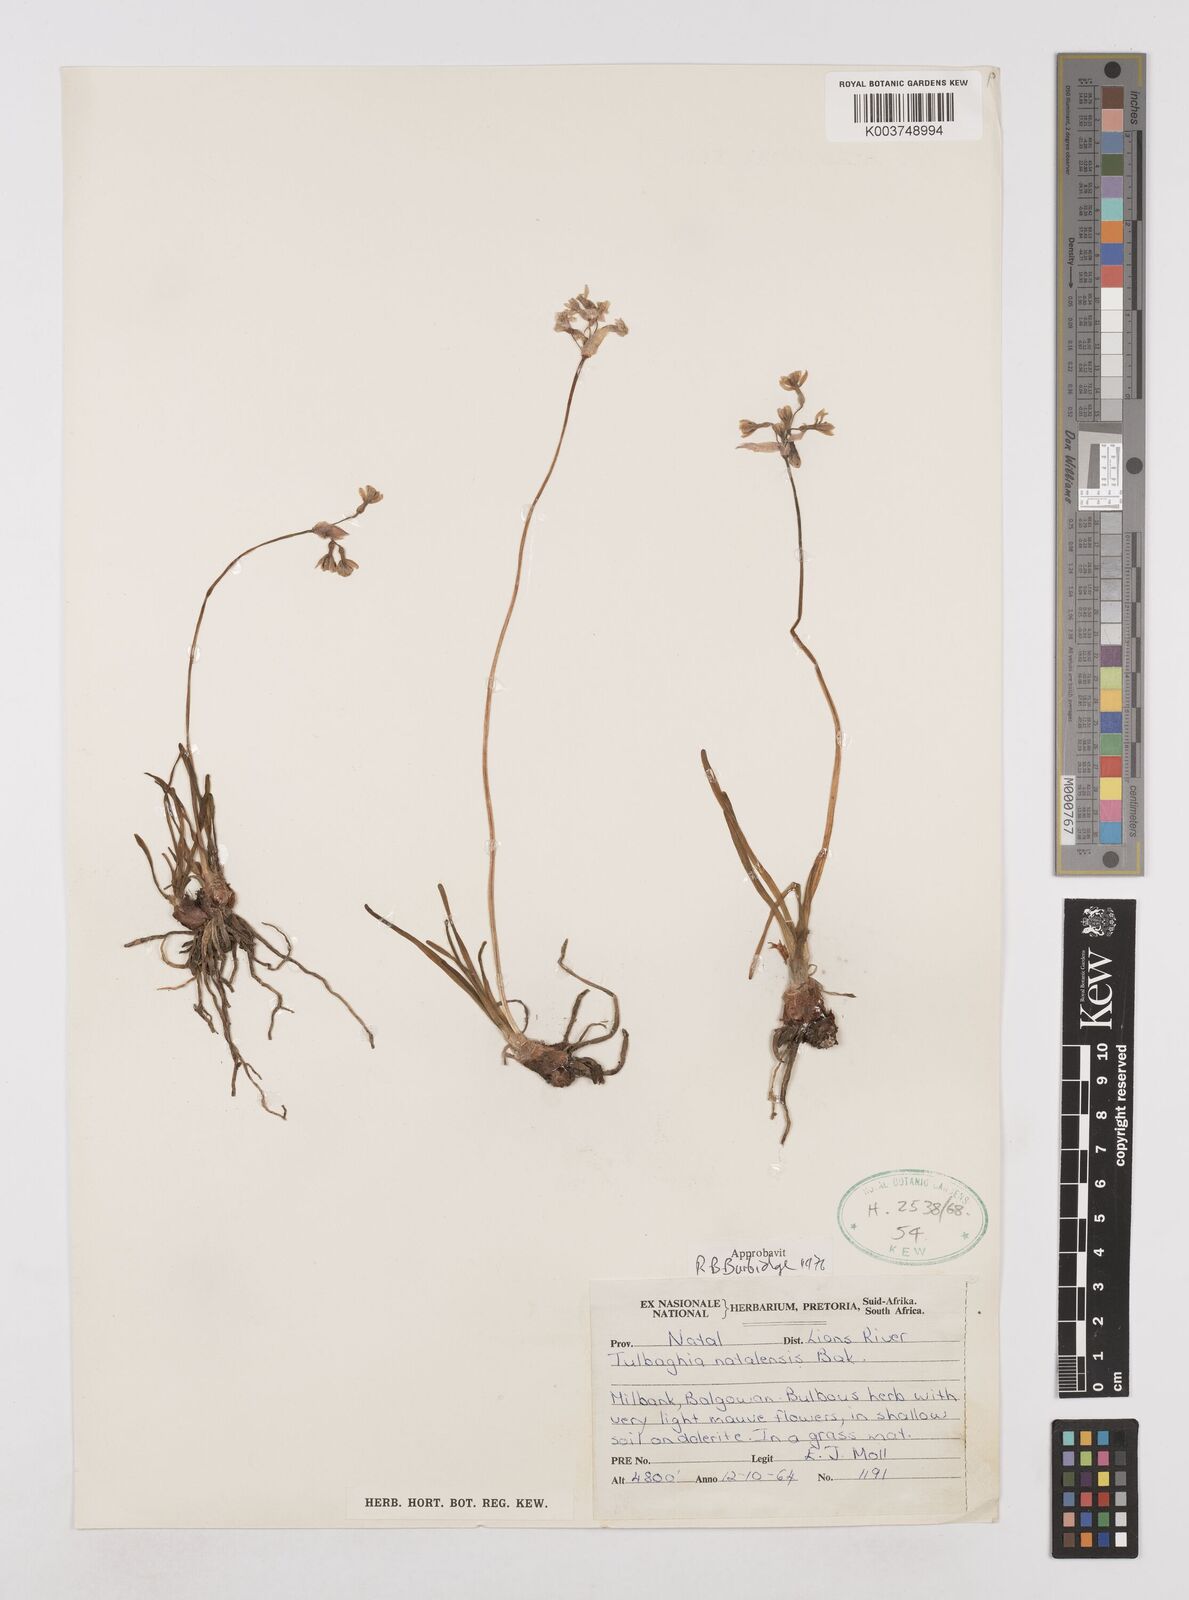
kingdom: Plantae
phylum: Tracheophyta
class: Liliopsida
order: Asparagales
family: Amaryllidaceae
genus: Tulbaghia
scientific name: Tulbaghia natalensis
